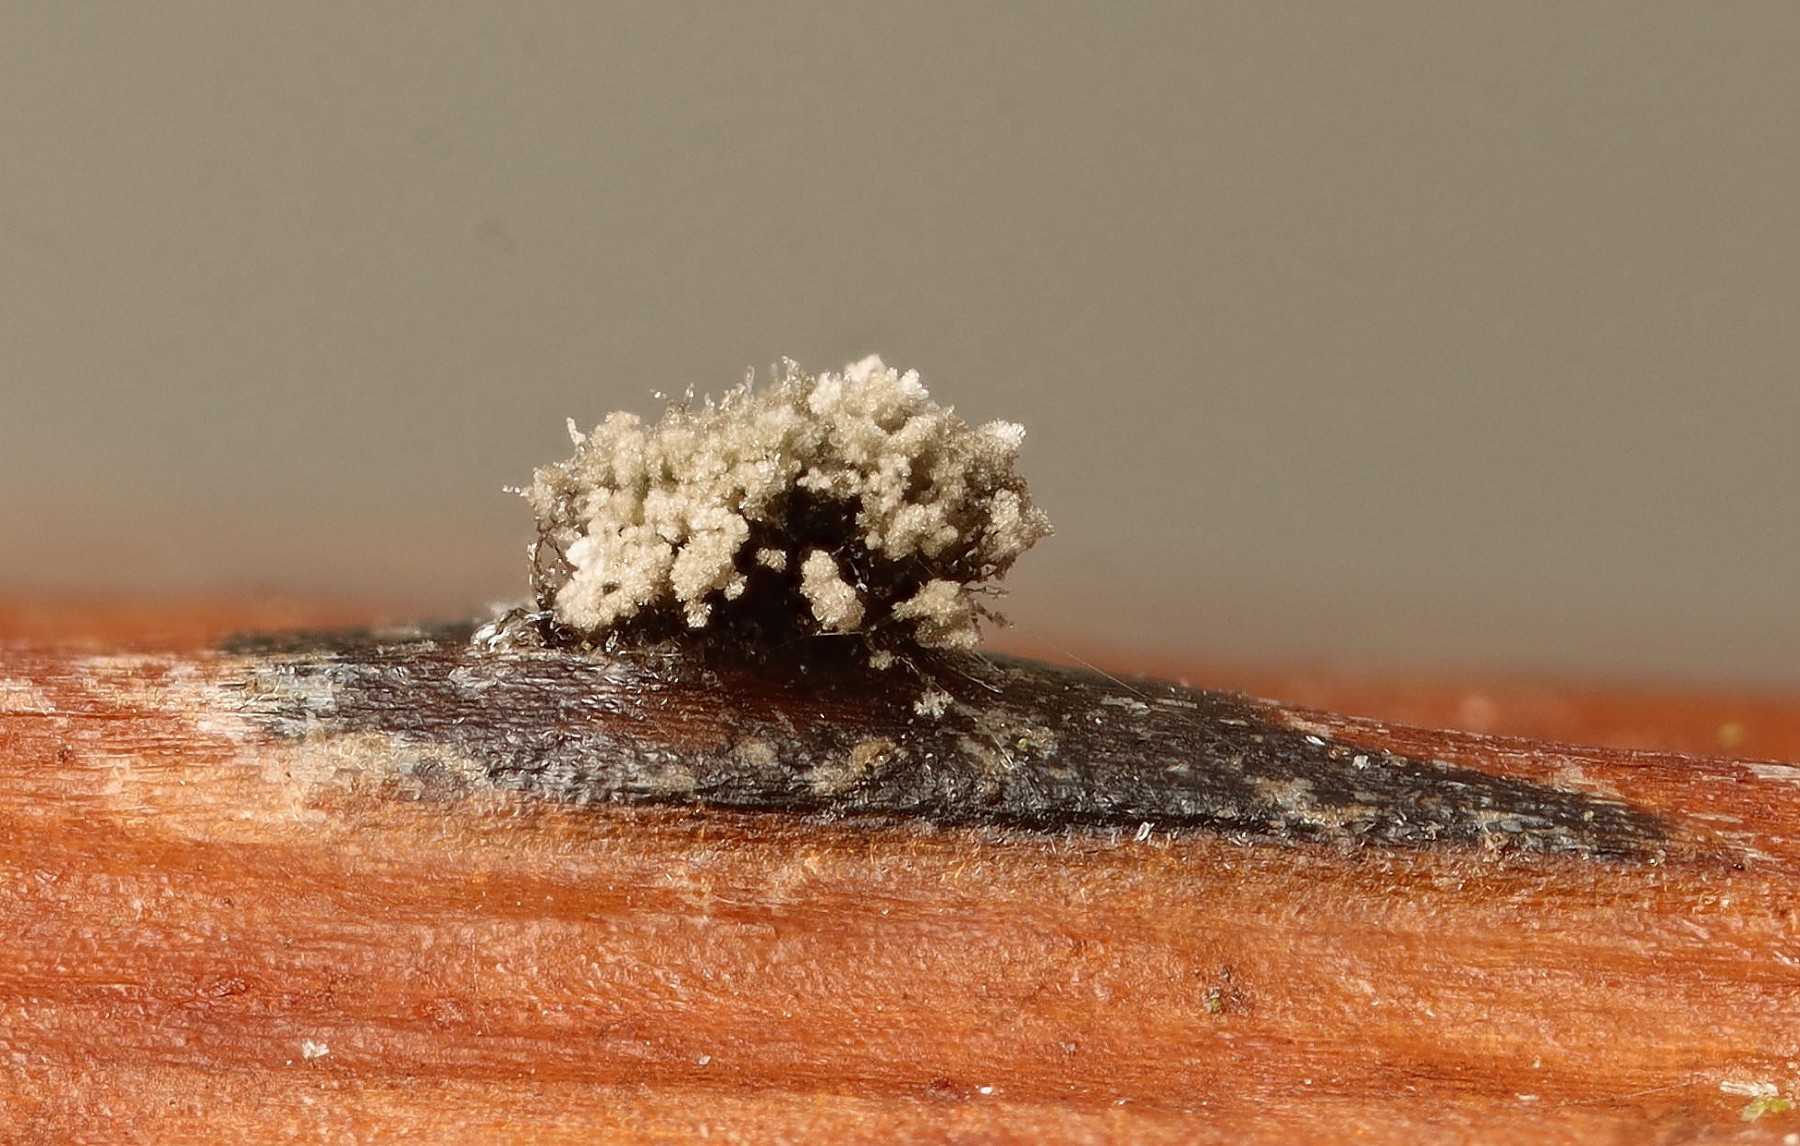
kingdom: Fungi
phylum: Ascomycota
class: Leotiomycetes
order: Helotiales
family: Sclerotiniaceae
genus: Botrytis
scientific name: Botrytis cinerea
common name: Grey mould
